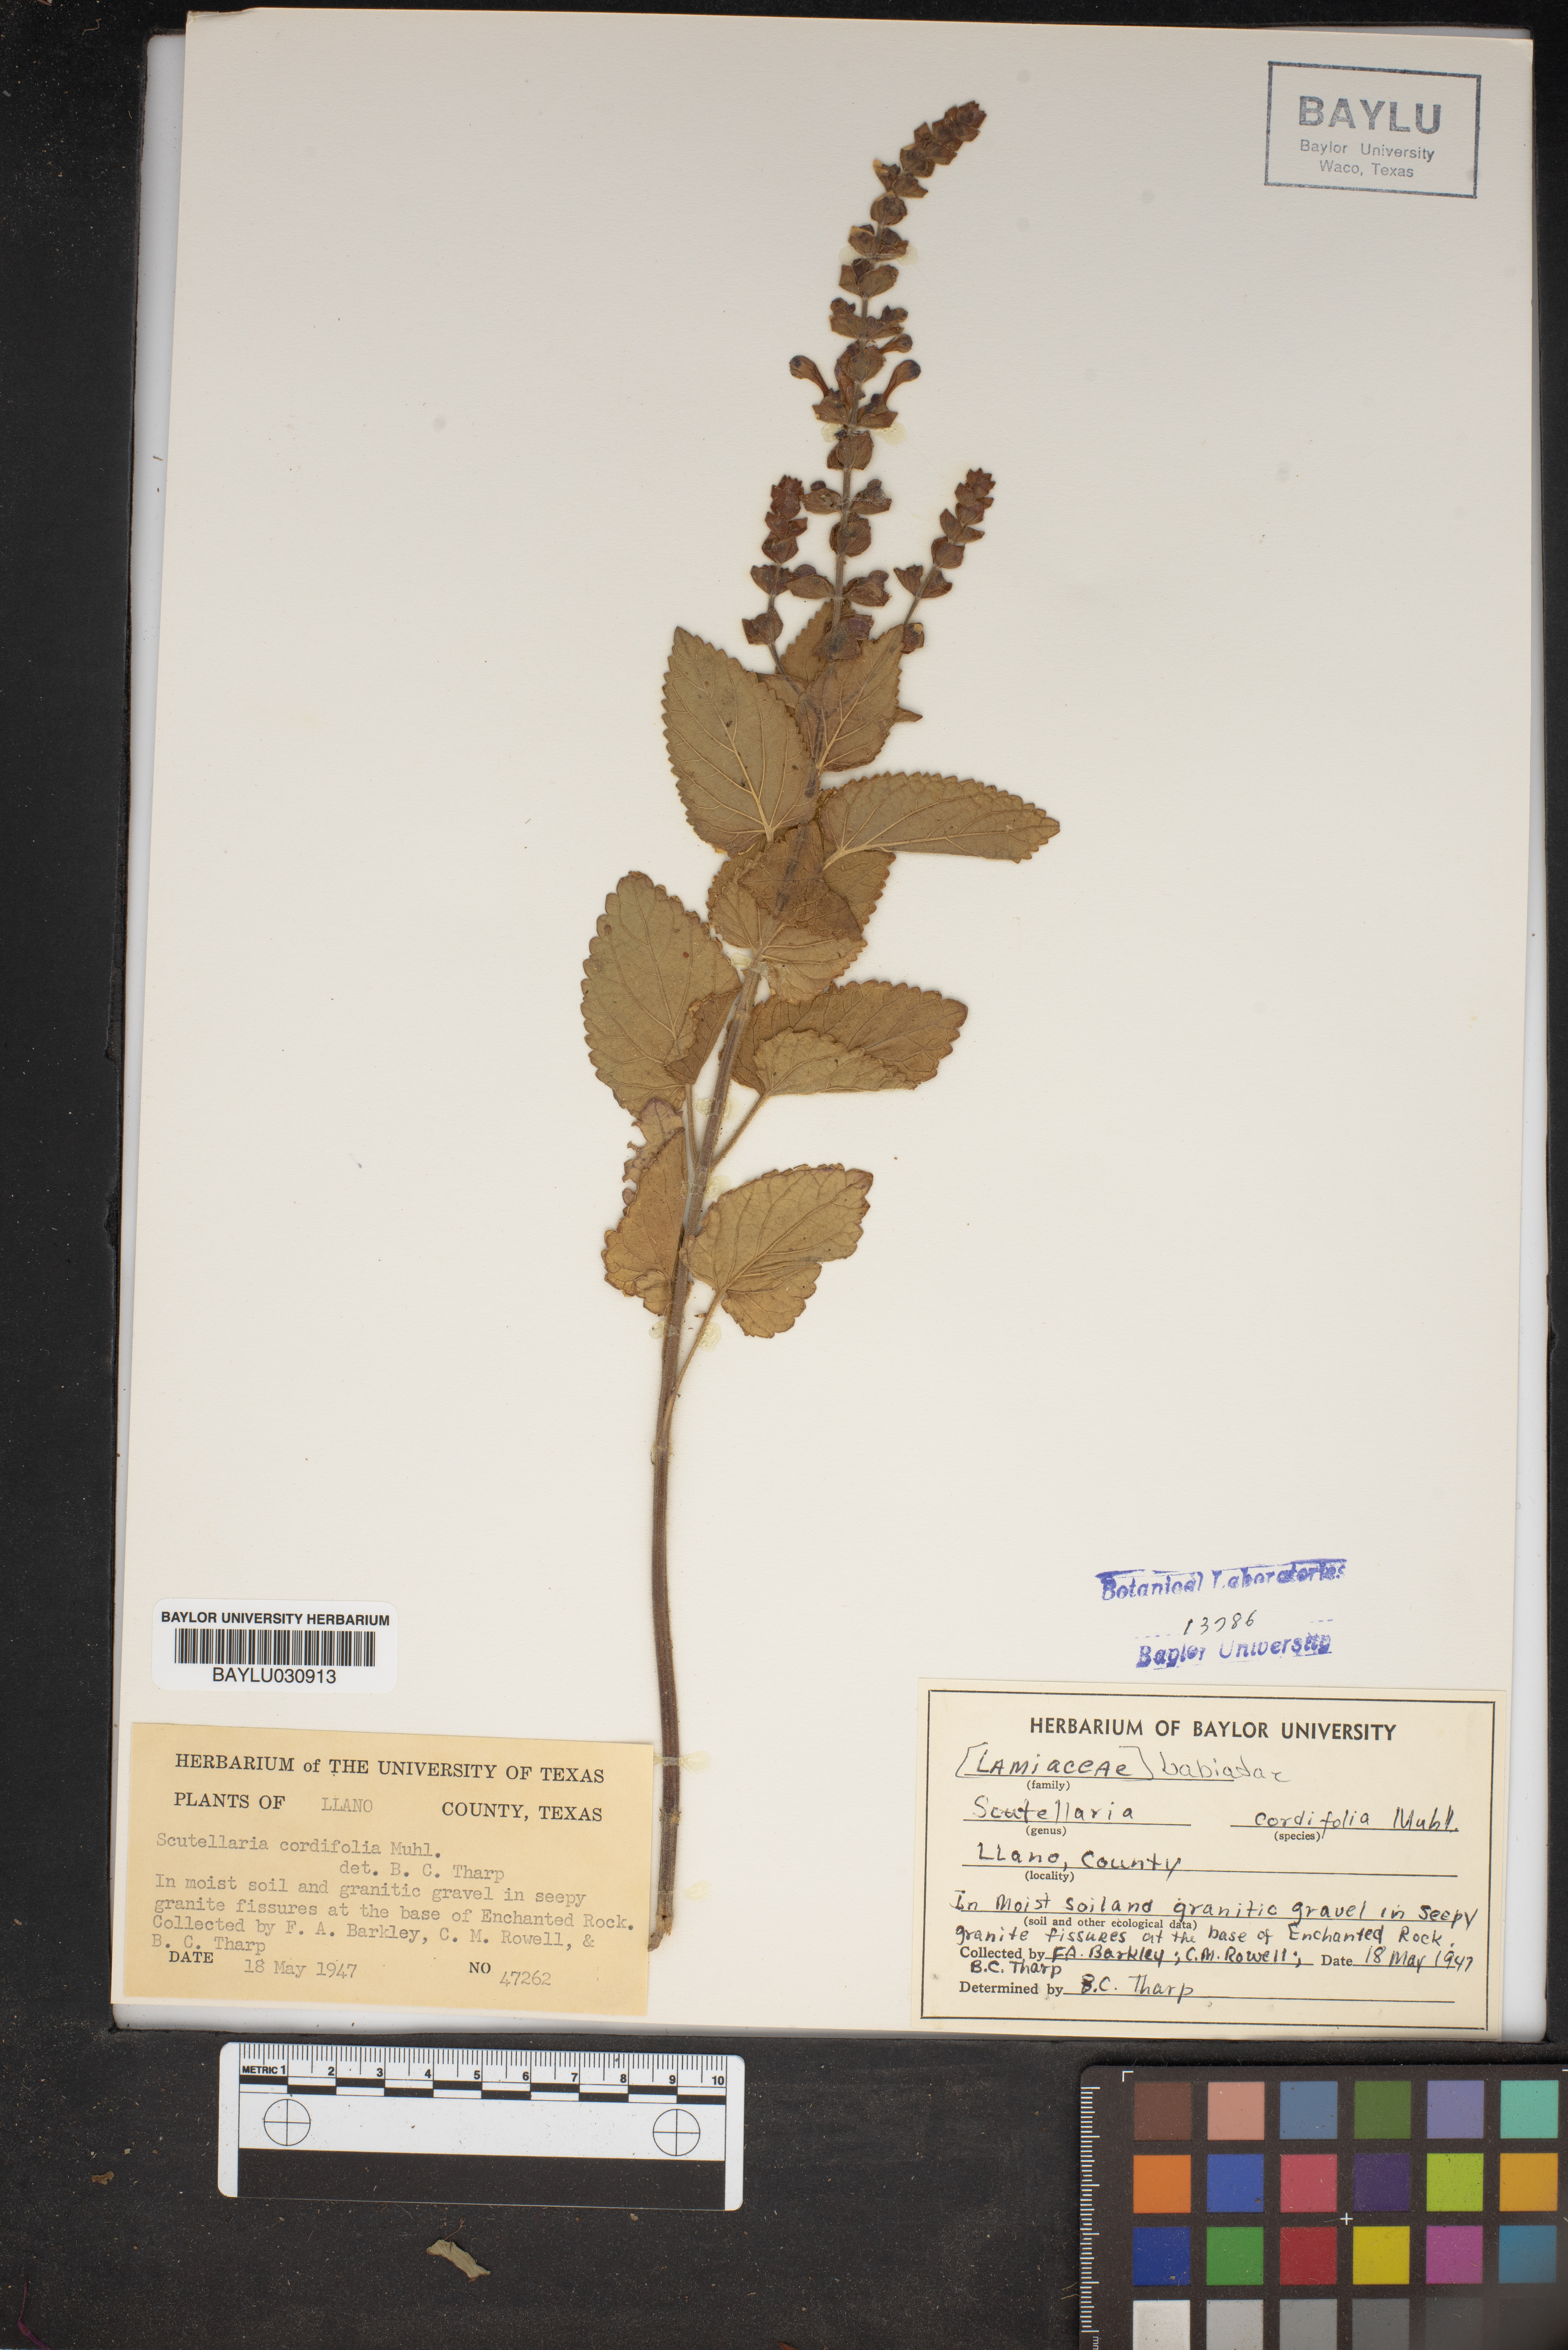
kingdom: Plantae
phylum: Tracheophyta
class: Magnoliopsida
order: Lamiales
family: Lamiaceae
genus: Scutellaria
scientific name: Scutellaria ovata
